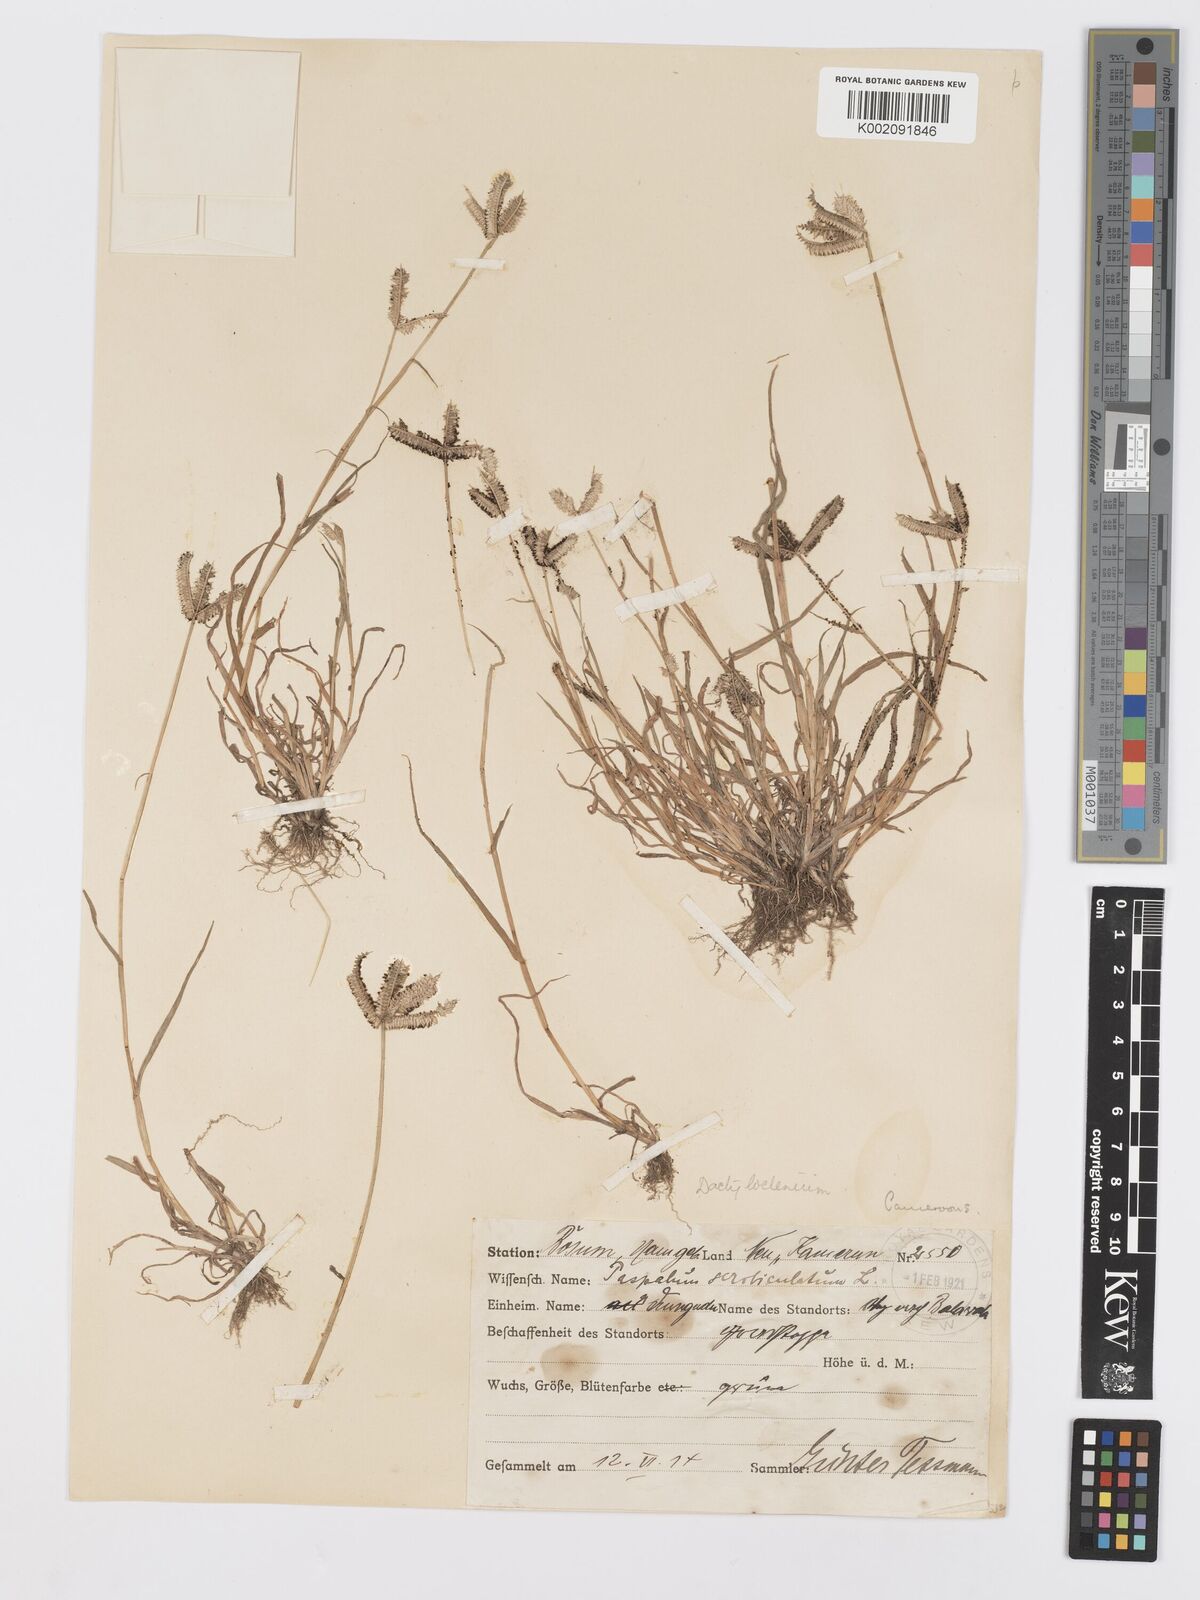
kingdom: Plantae
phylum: Tracheophyta
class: Liliopsida
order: Poales
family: Poaceae
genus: Dactyloctenium
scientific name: Dactyloctenium aegyptium
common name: Egyptian grass
